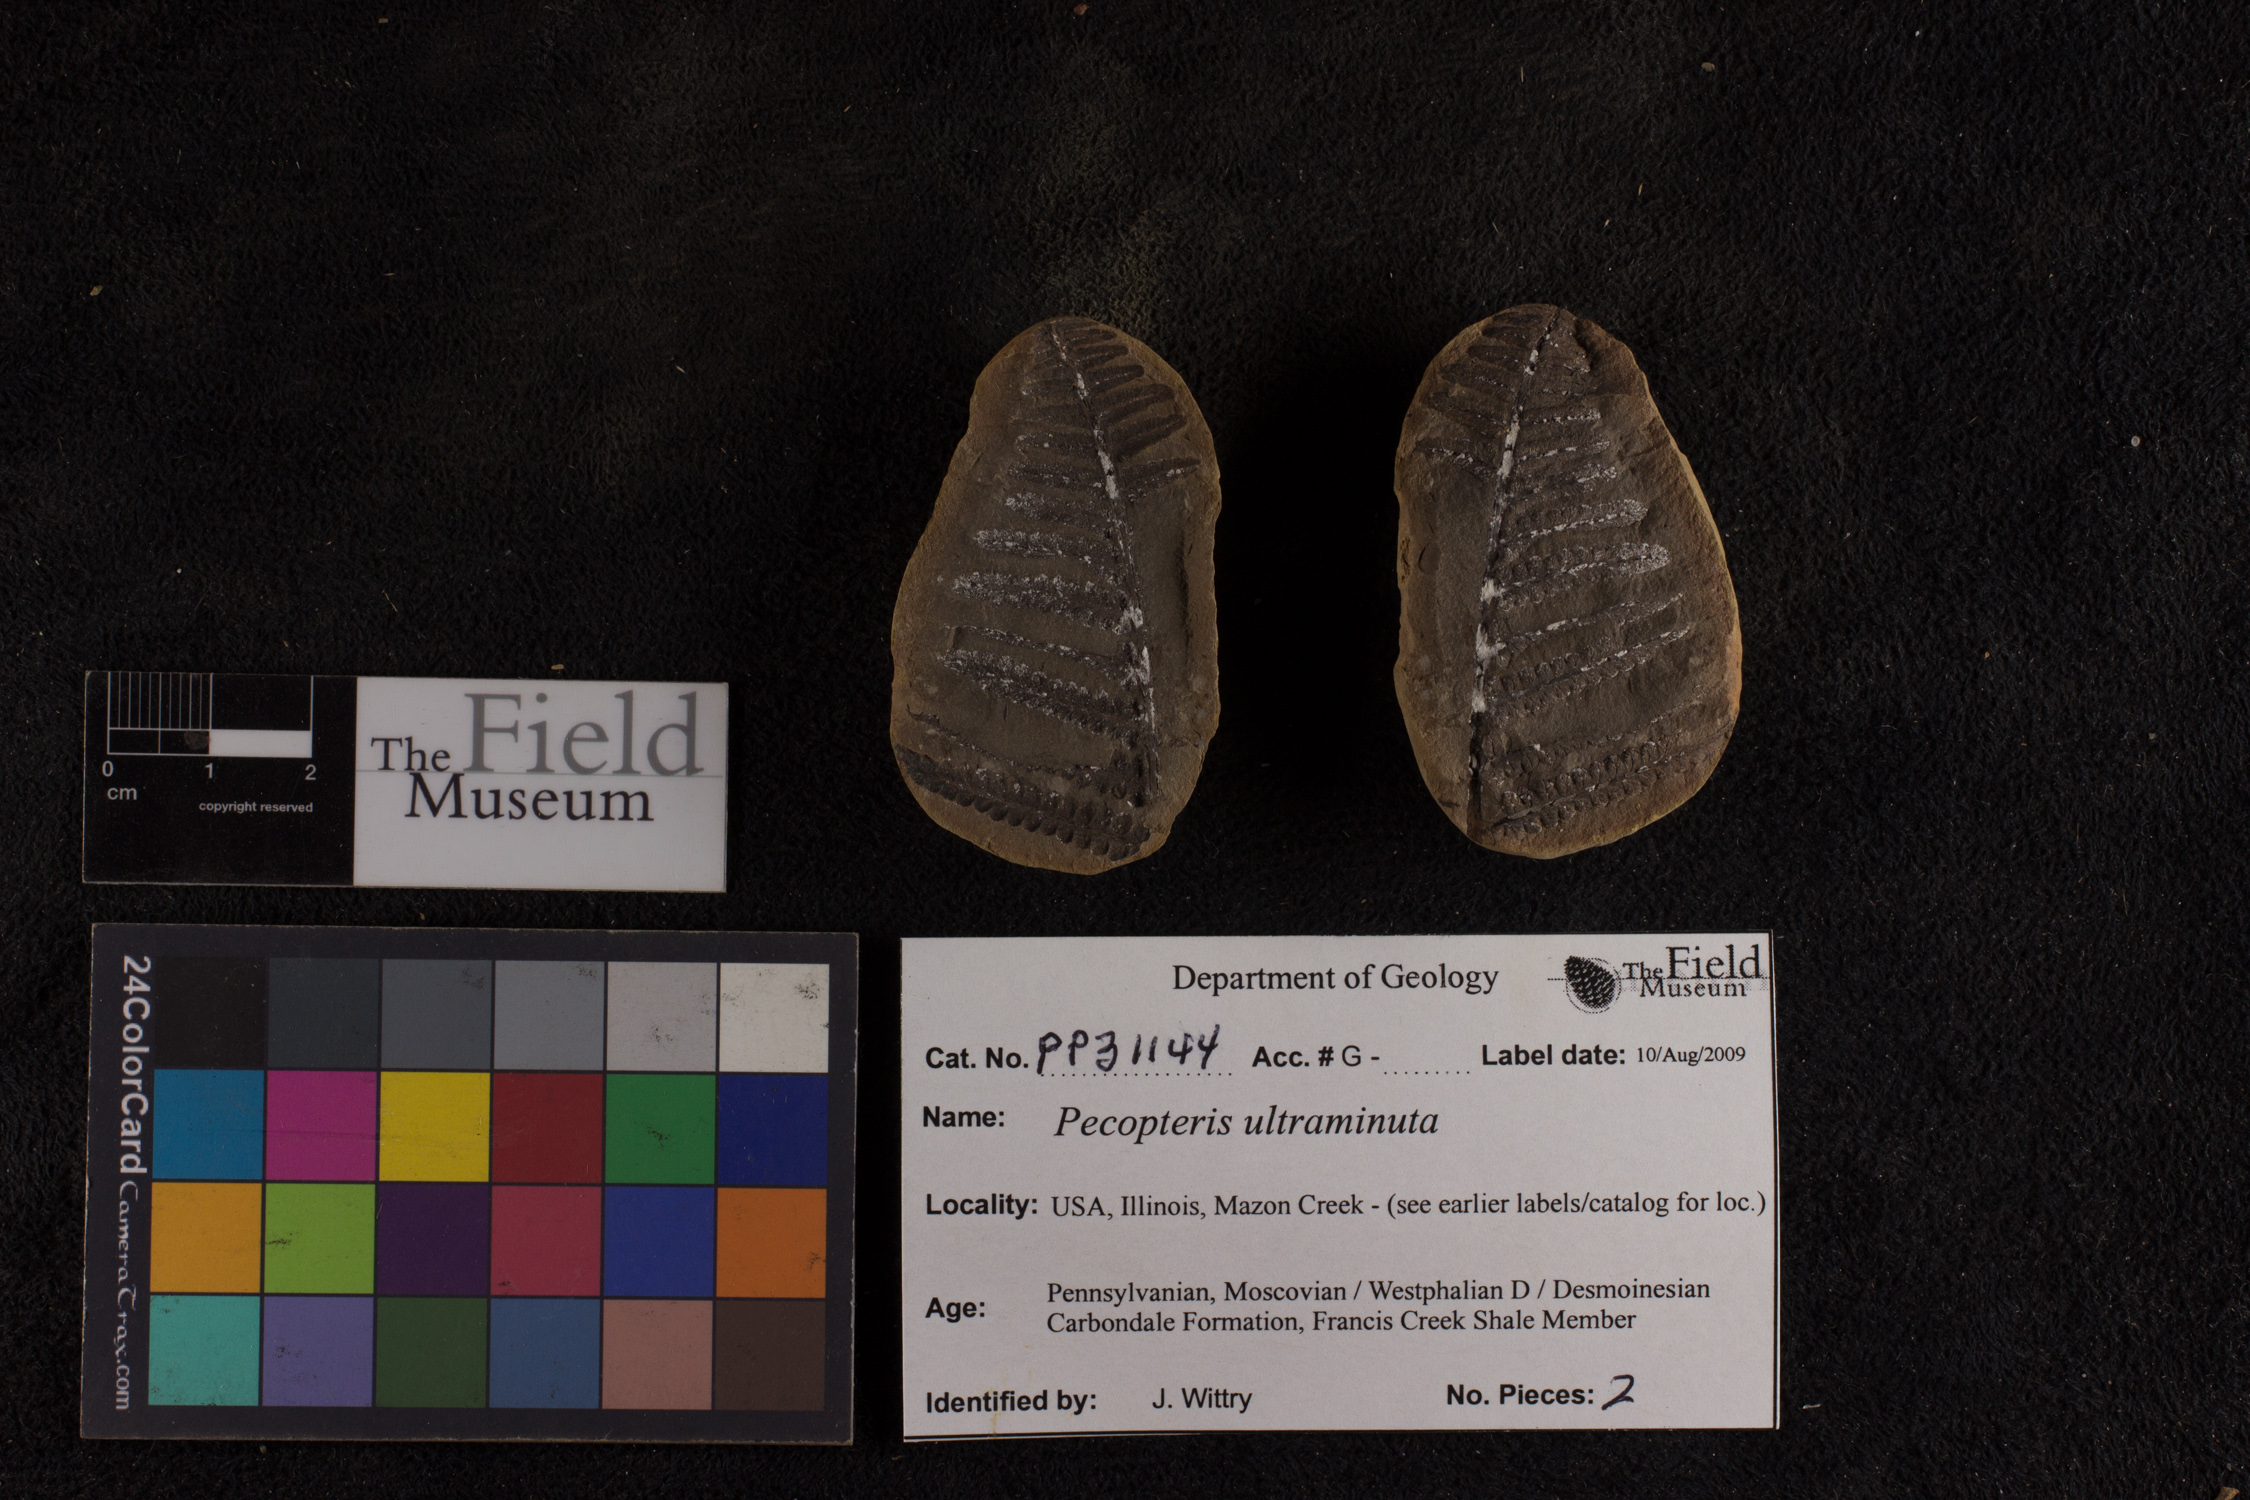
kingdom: Plantae
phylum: Tracheophyta
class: Polypodiopsida
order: Marattiales
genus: Cyathocarpus
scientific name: Cyathocarpus
